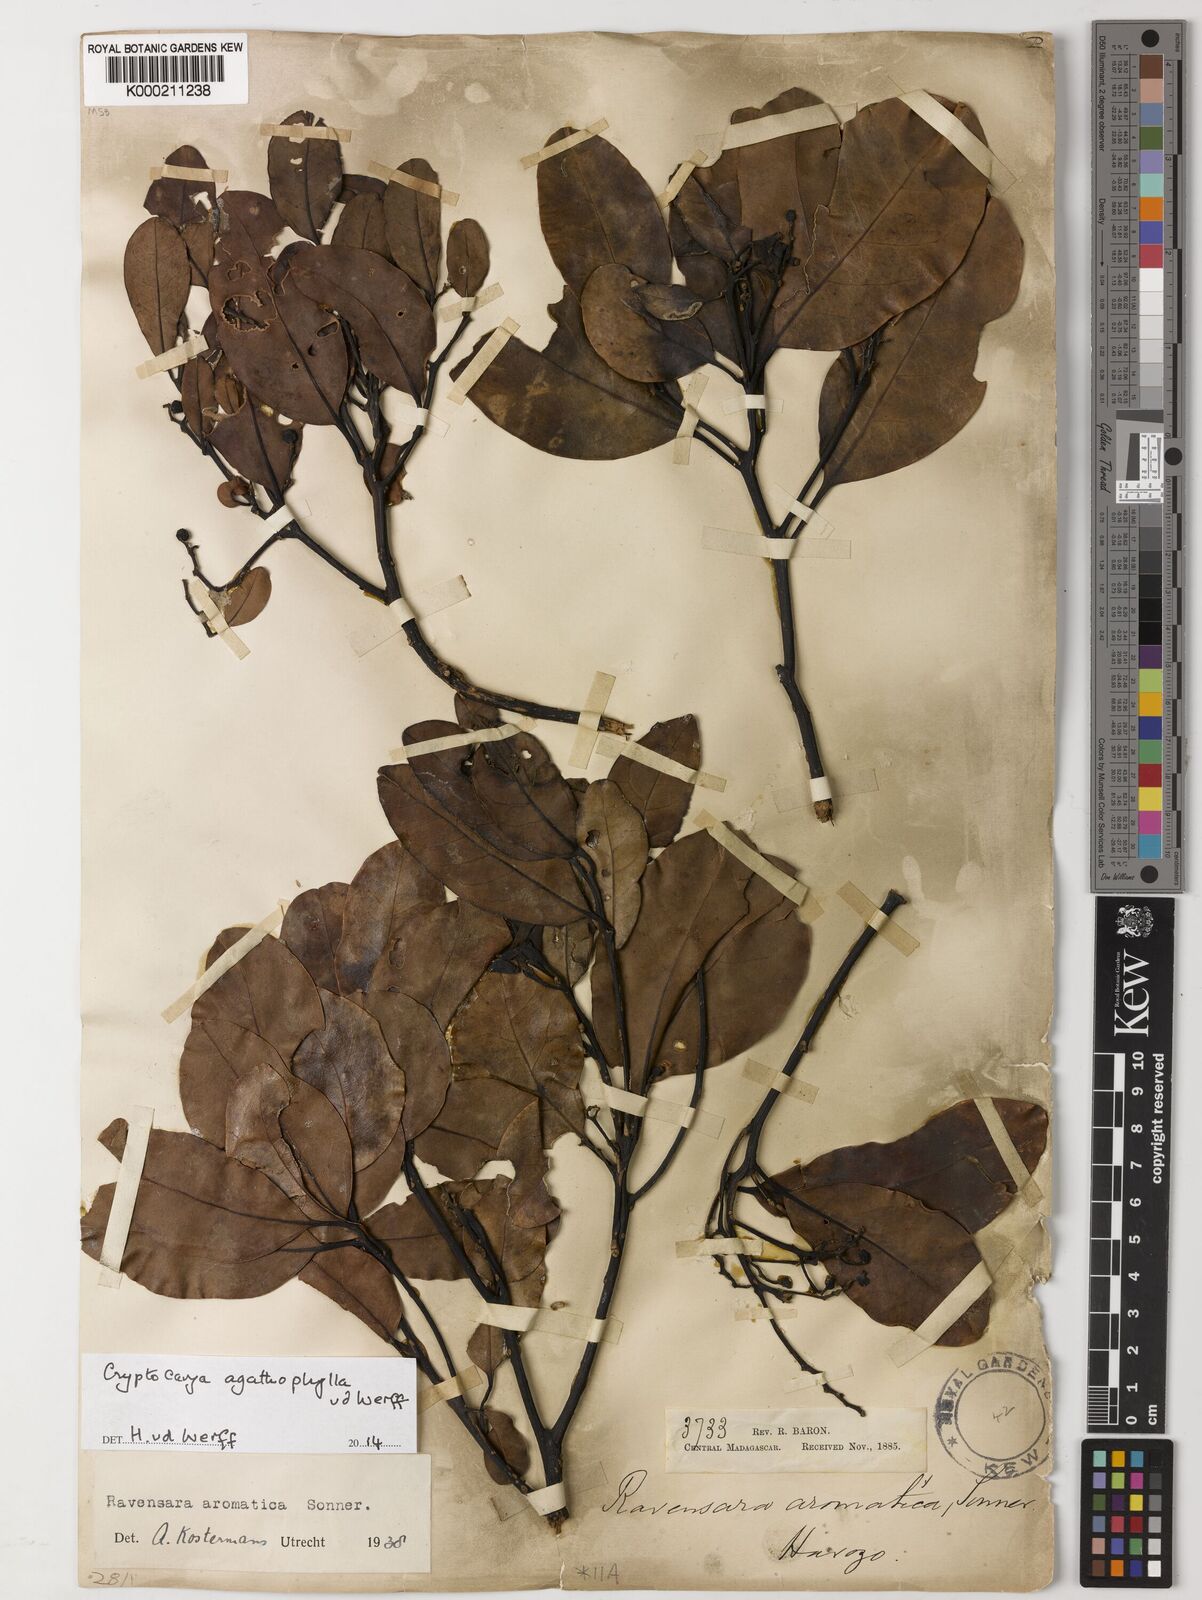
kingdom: Plantae
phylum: Tracheophyta
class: Magnoliopsida
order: Laurales
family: Lauraceae
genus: Cryptocarya
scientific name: Cryptocarya agathophylla
